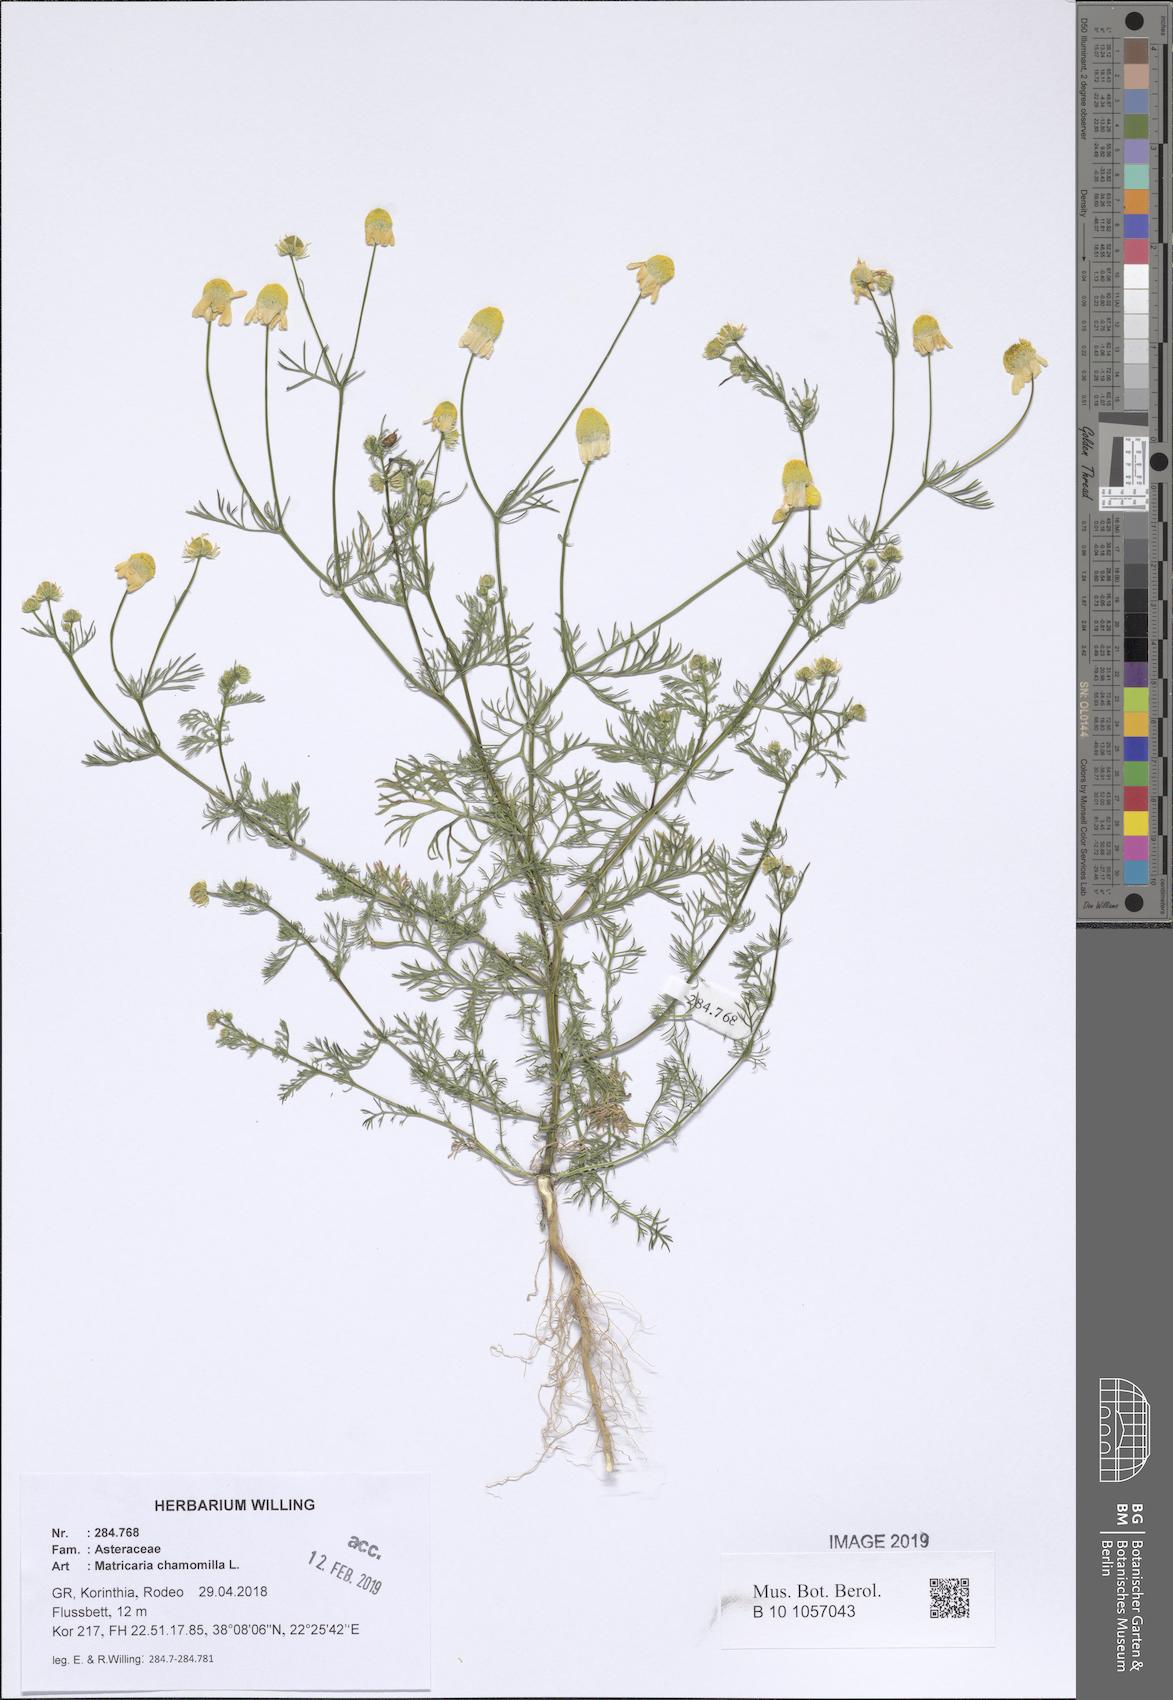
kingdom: Plantae
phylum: Tracheophyta
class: Magnoliopsida
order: Asterales
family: Asteraceae
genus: Matricaria
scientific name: Matricaria chamomilla
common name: Scented mayweed
